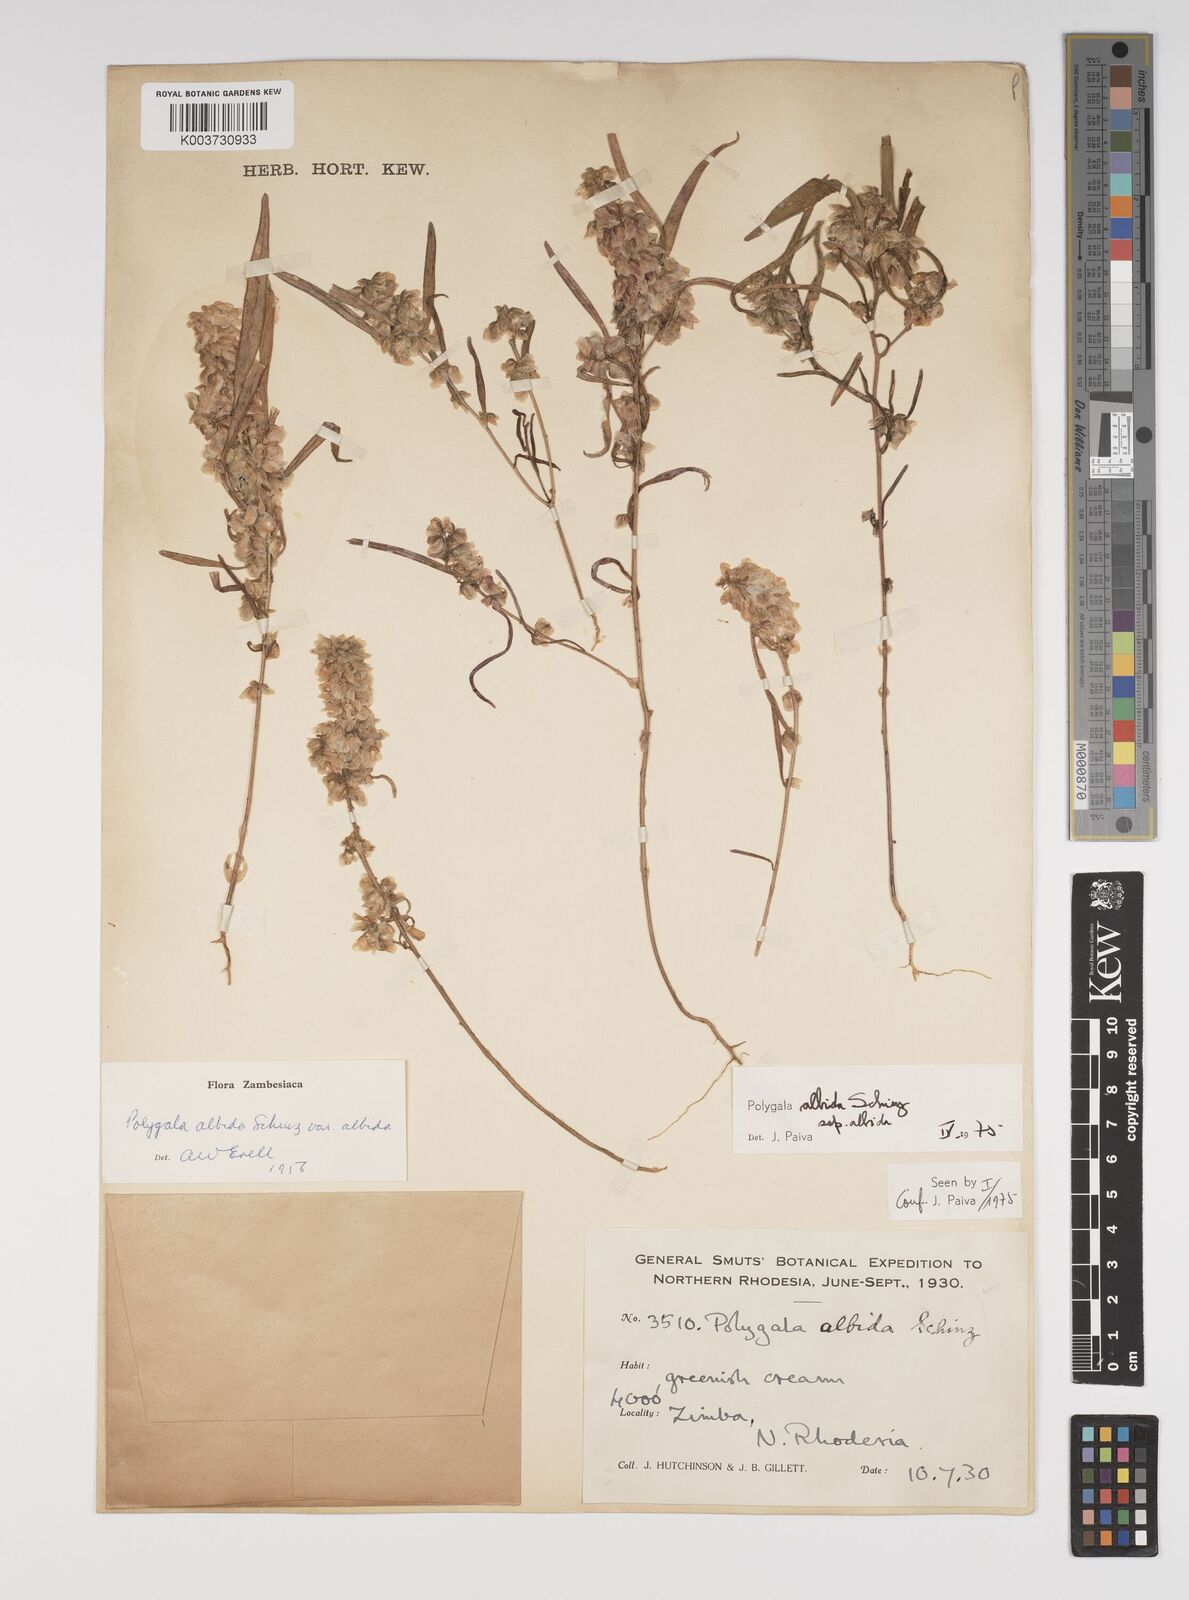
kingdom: Plantae
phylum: Tracheophyta
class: Magnoliopsida
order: Fabales
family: Polygalaceae
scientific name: Polygalaceae
